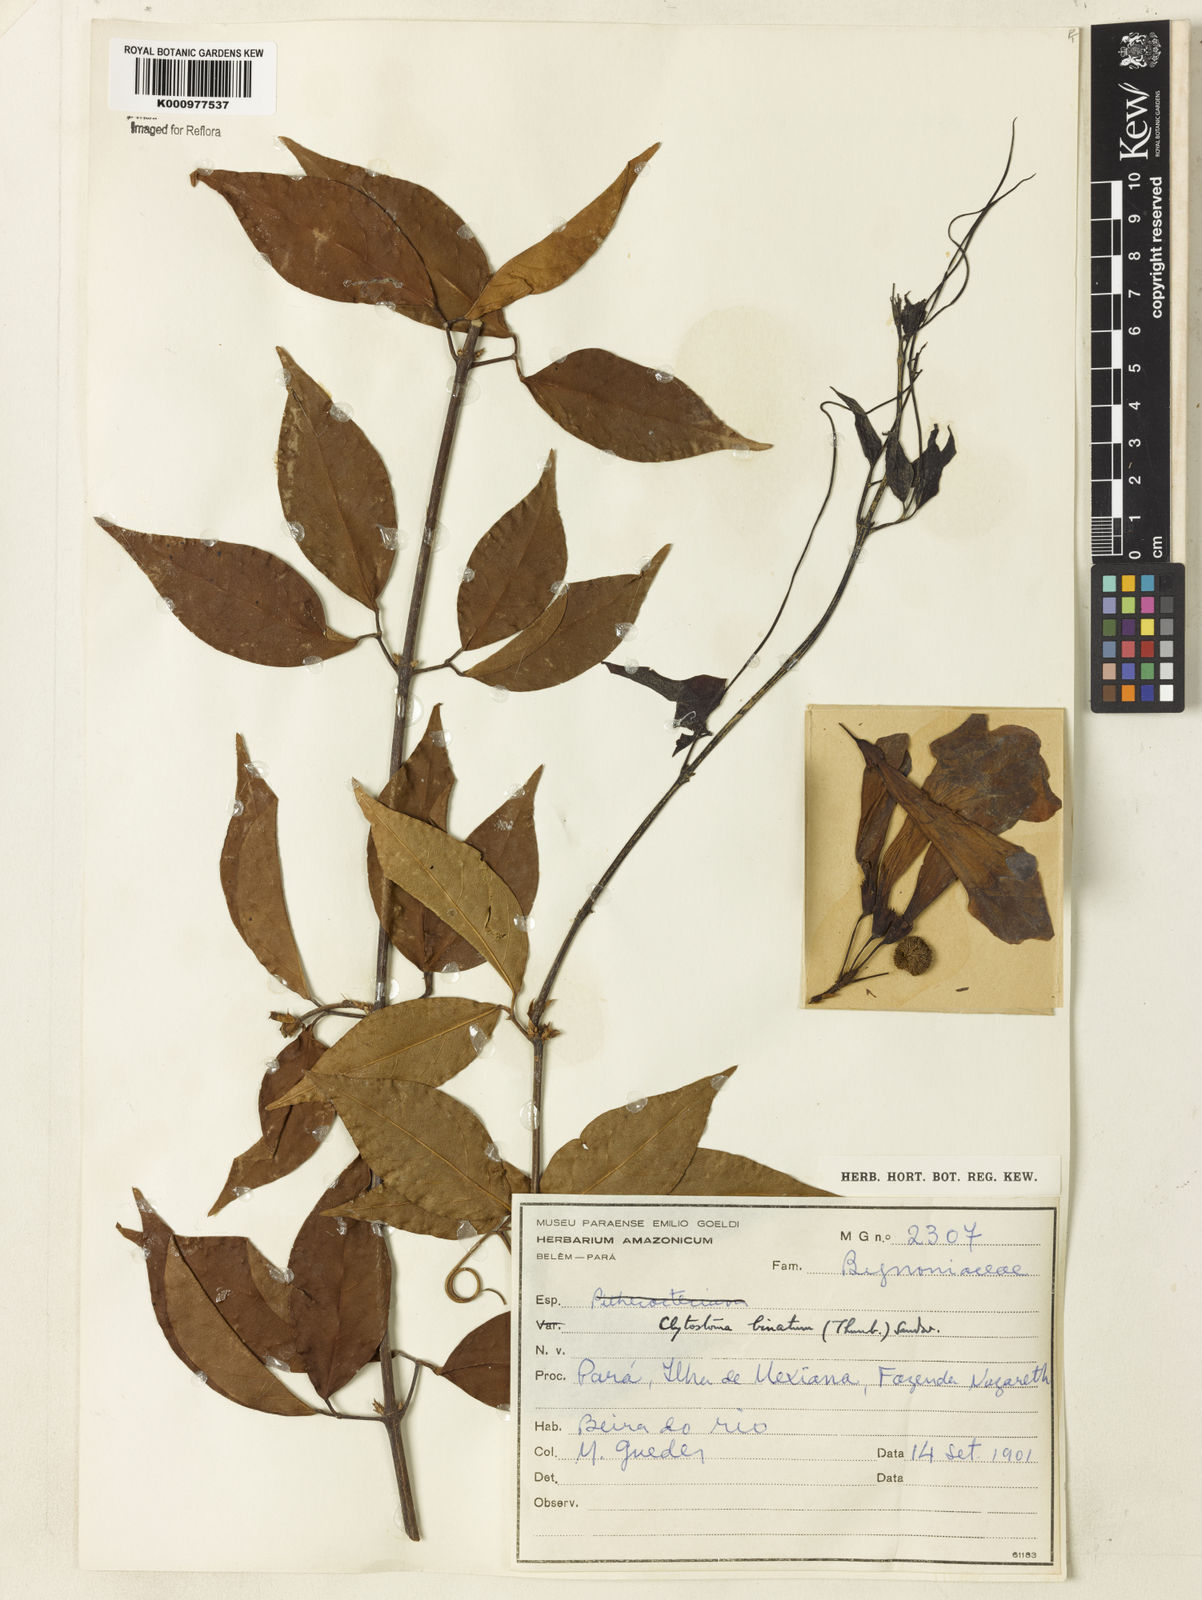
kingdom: Plantae
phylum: Tracheophyta
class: Magnoliopsida
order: Lamiales
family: Bignoniaceae
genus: Bignonia
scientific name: Bignonia binata
